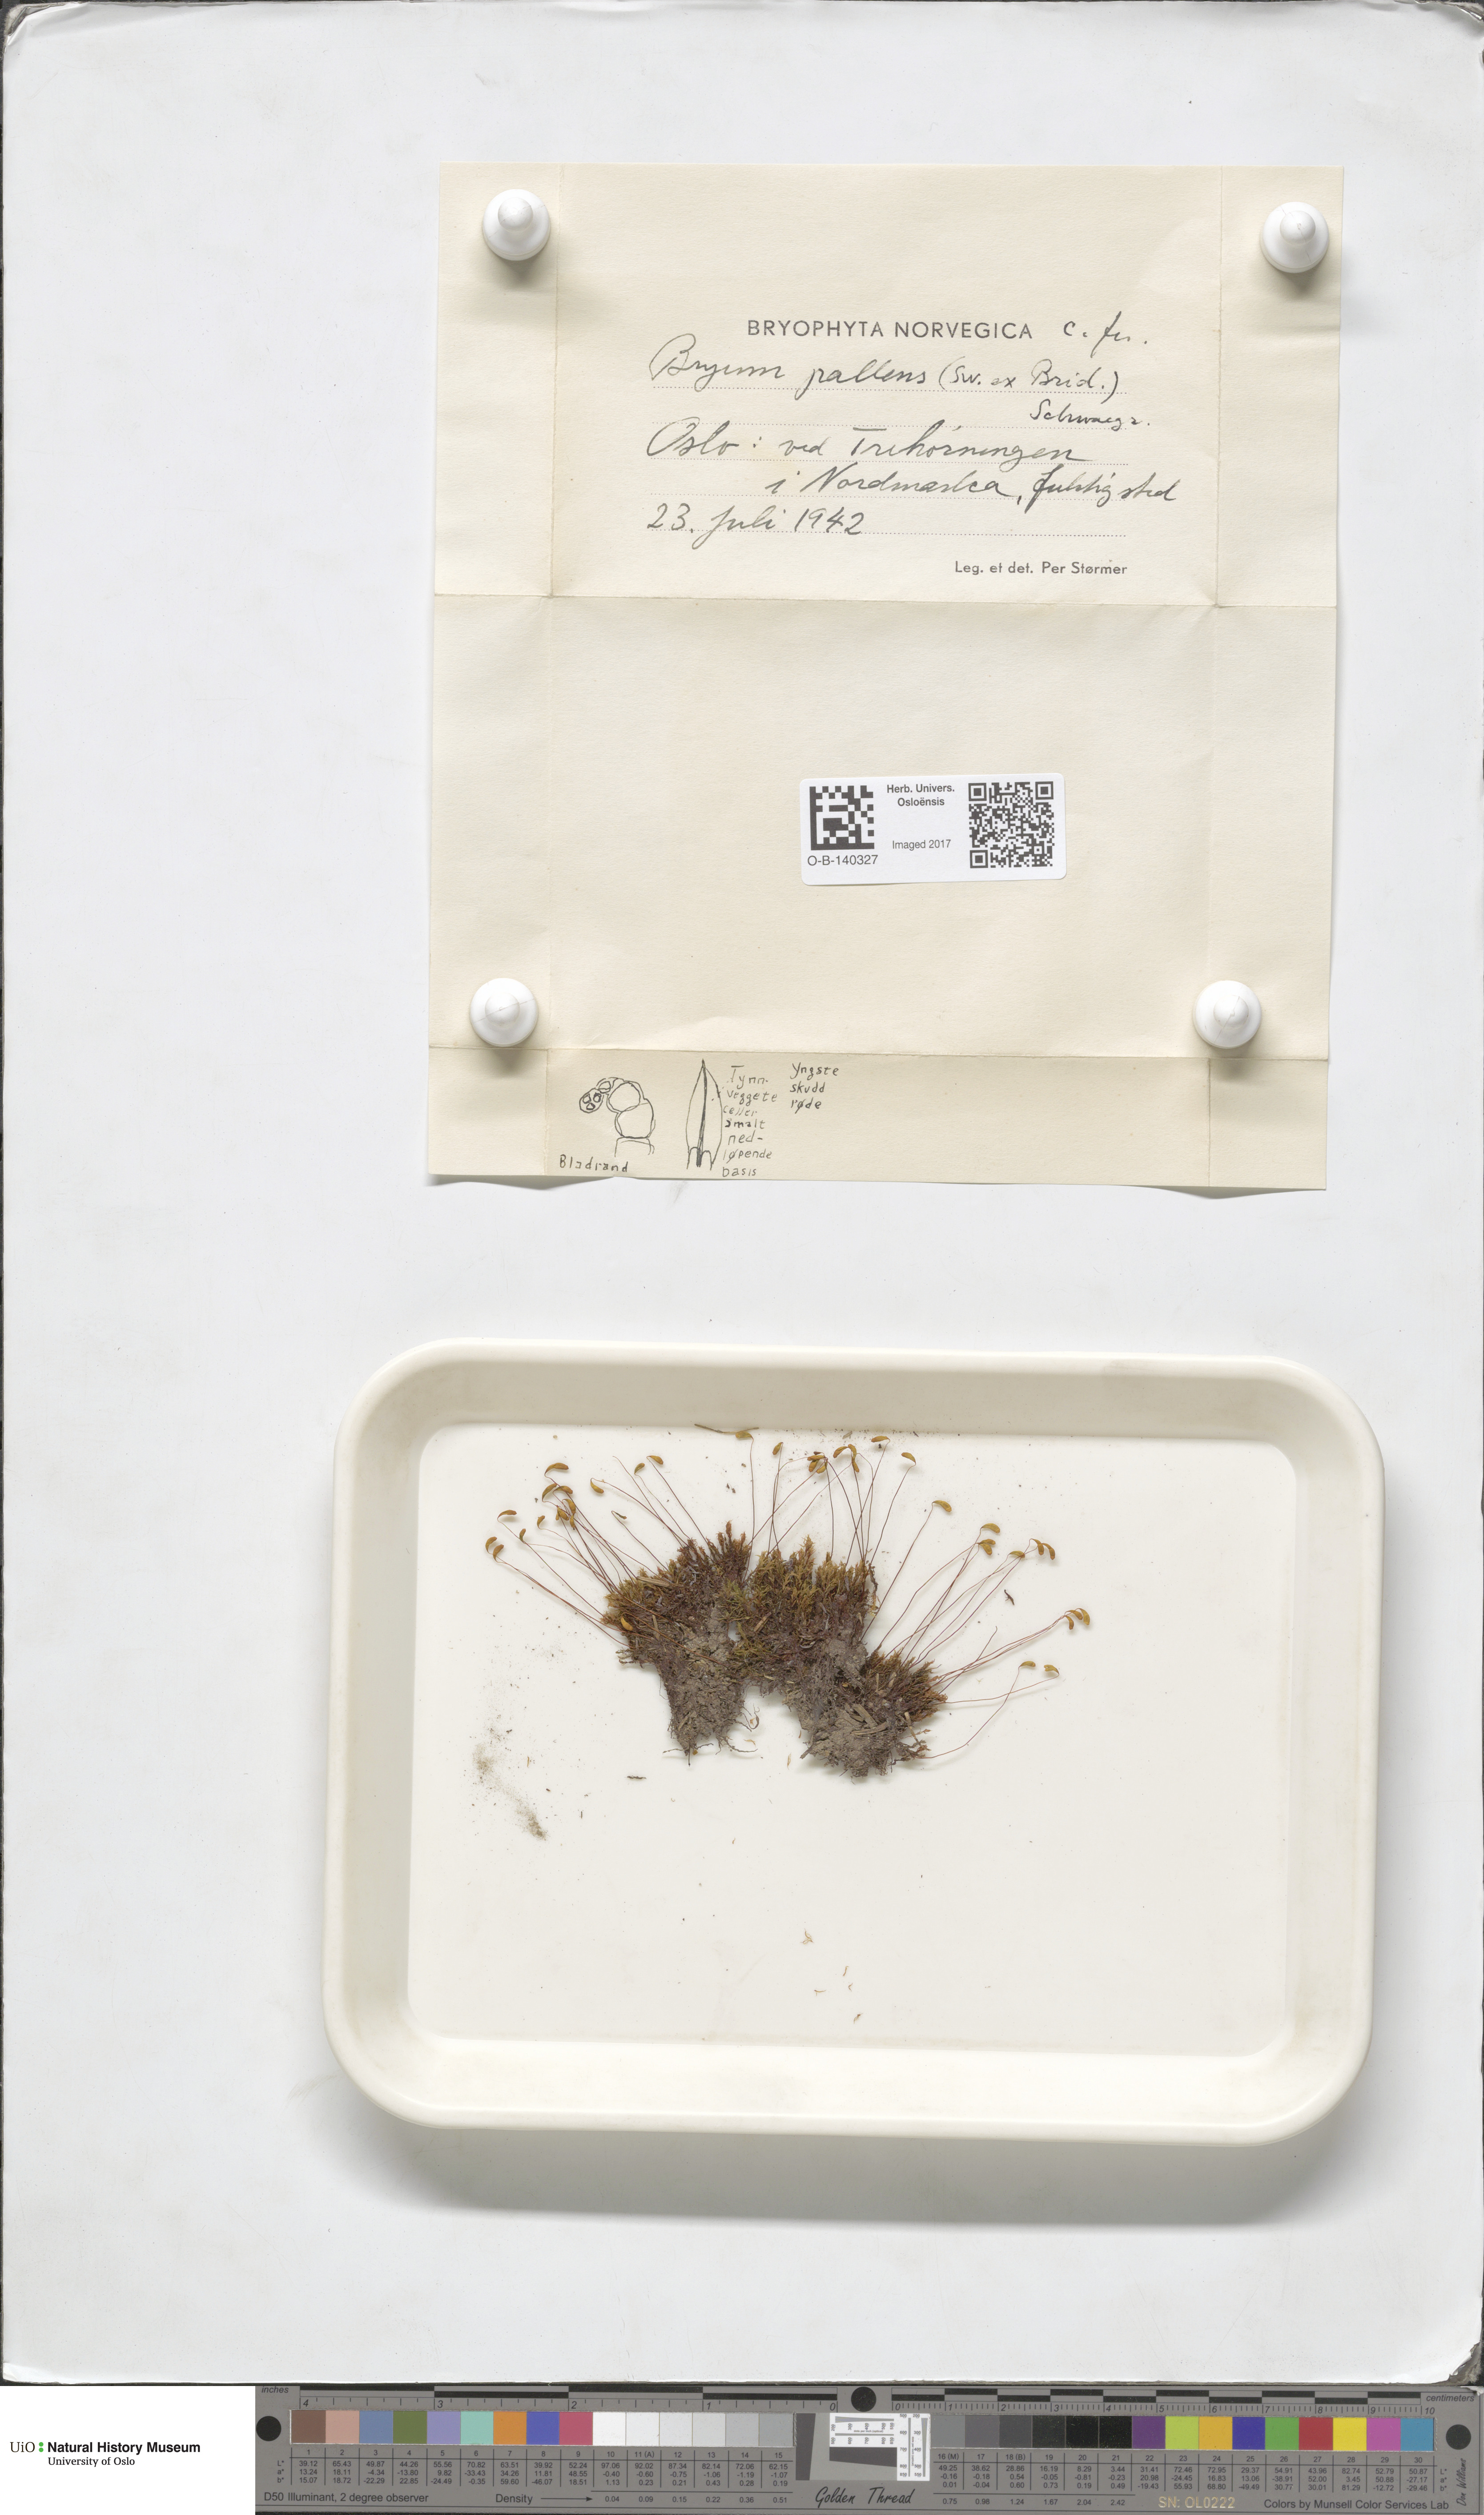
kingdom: Plantae
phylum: Bryophyta
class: Bryopsida
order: Bryales
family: Bryaceae
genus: Ptychostomum
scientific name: Ptychostomum pallens
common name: Pale thread-moss
